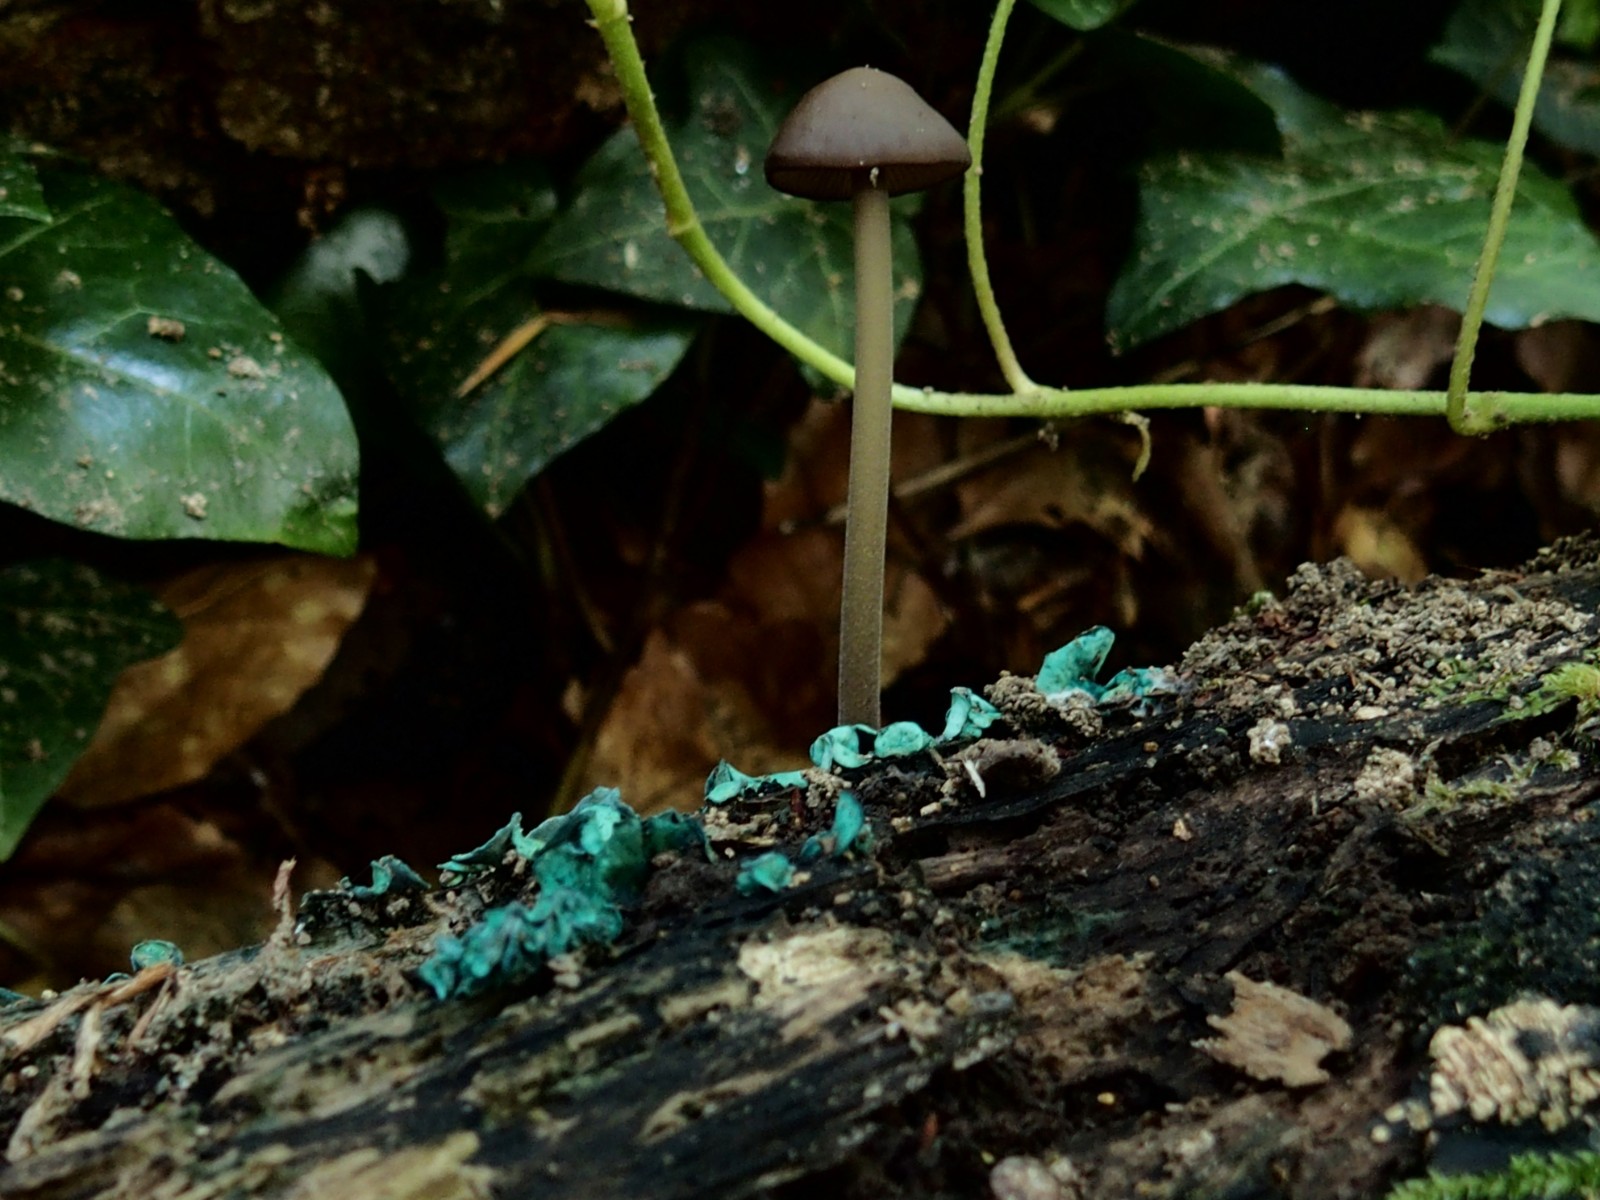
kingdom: Fungi
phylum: Ascomycota
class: Leotiomycetes
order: Helotiales
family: Chlorociboriaceae
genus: Chlorociboria
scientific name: Chlorociboria aeruginascens
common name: almindelig grønskive
